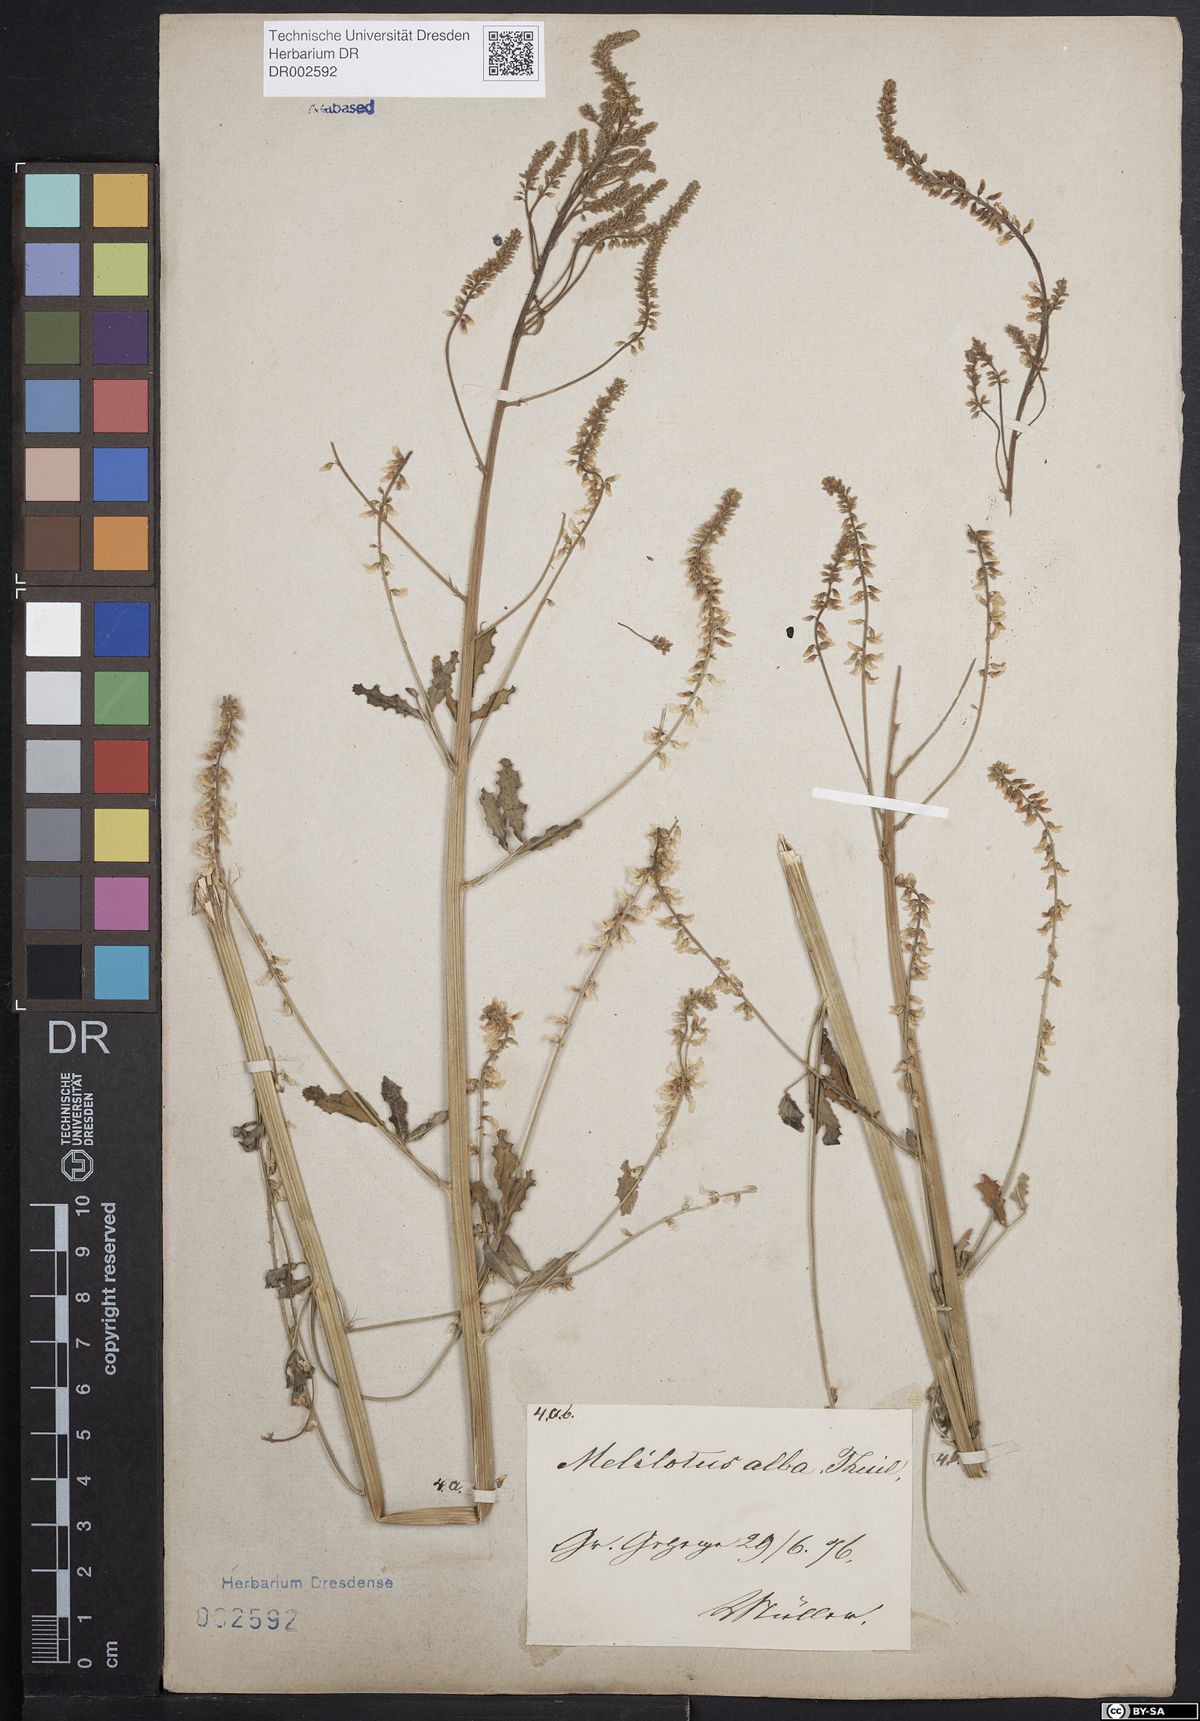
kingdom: Plantae
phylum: Tracheophyta
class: Magnoliopsida
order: Fabales
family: Fabaceae
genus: Melilotus
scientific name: Melilotus albus
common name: White melilot
